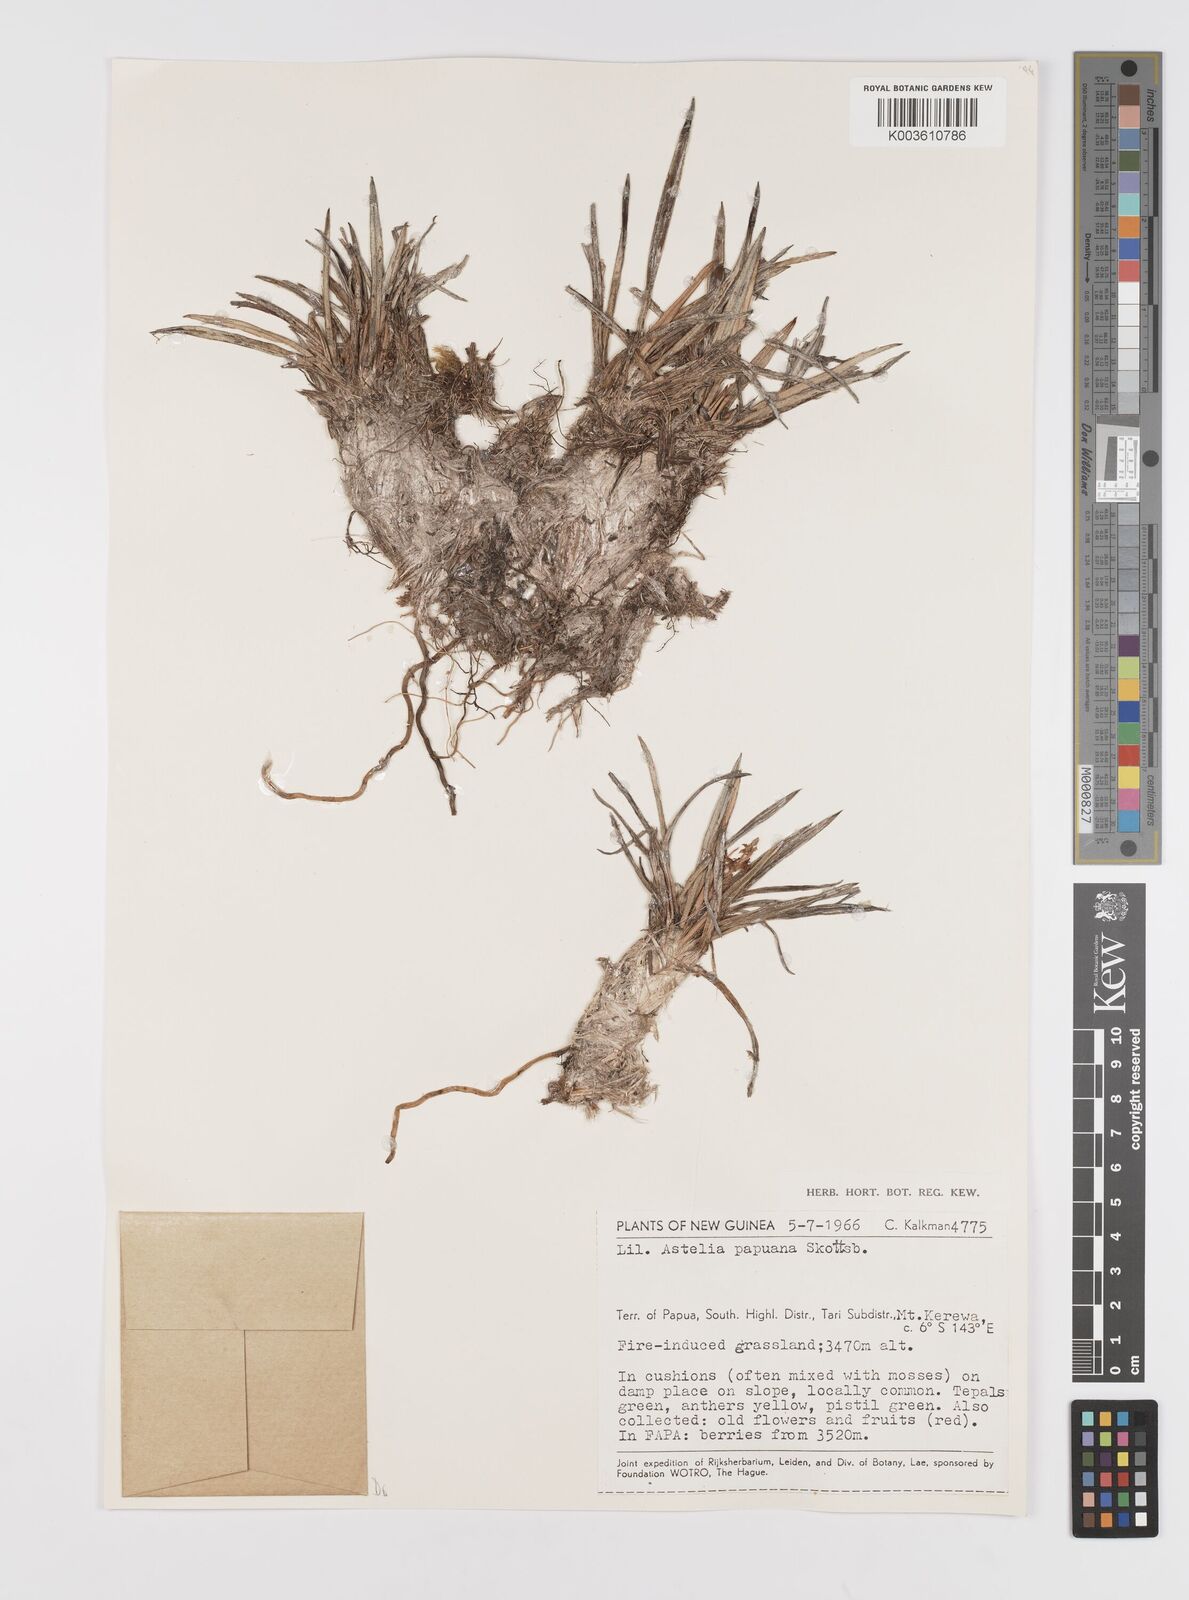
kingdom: Plantae
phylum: Tracheophyta
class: Liliopsida
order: Asparagales
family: Asteliaceae
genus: Astelia
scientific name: Astelia papuana
